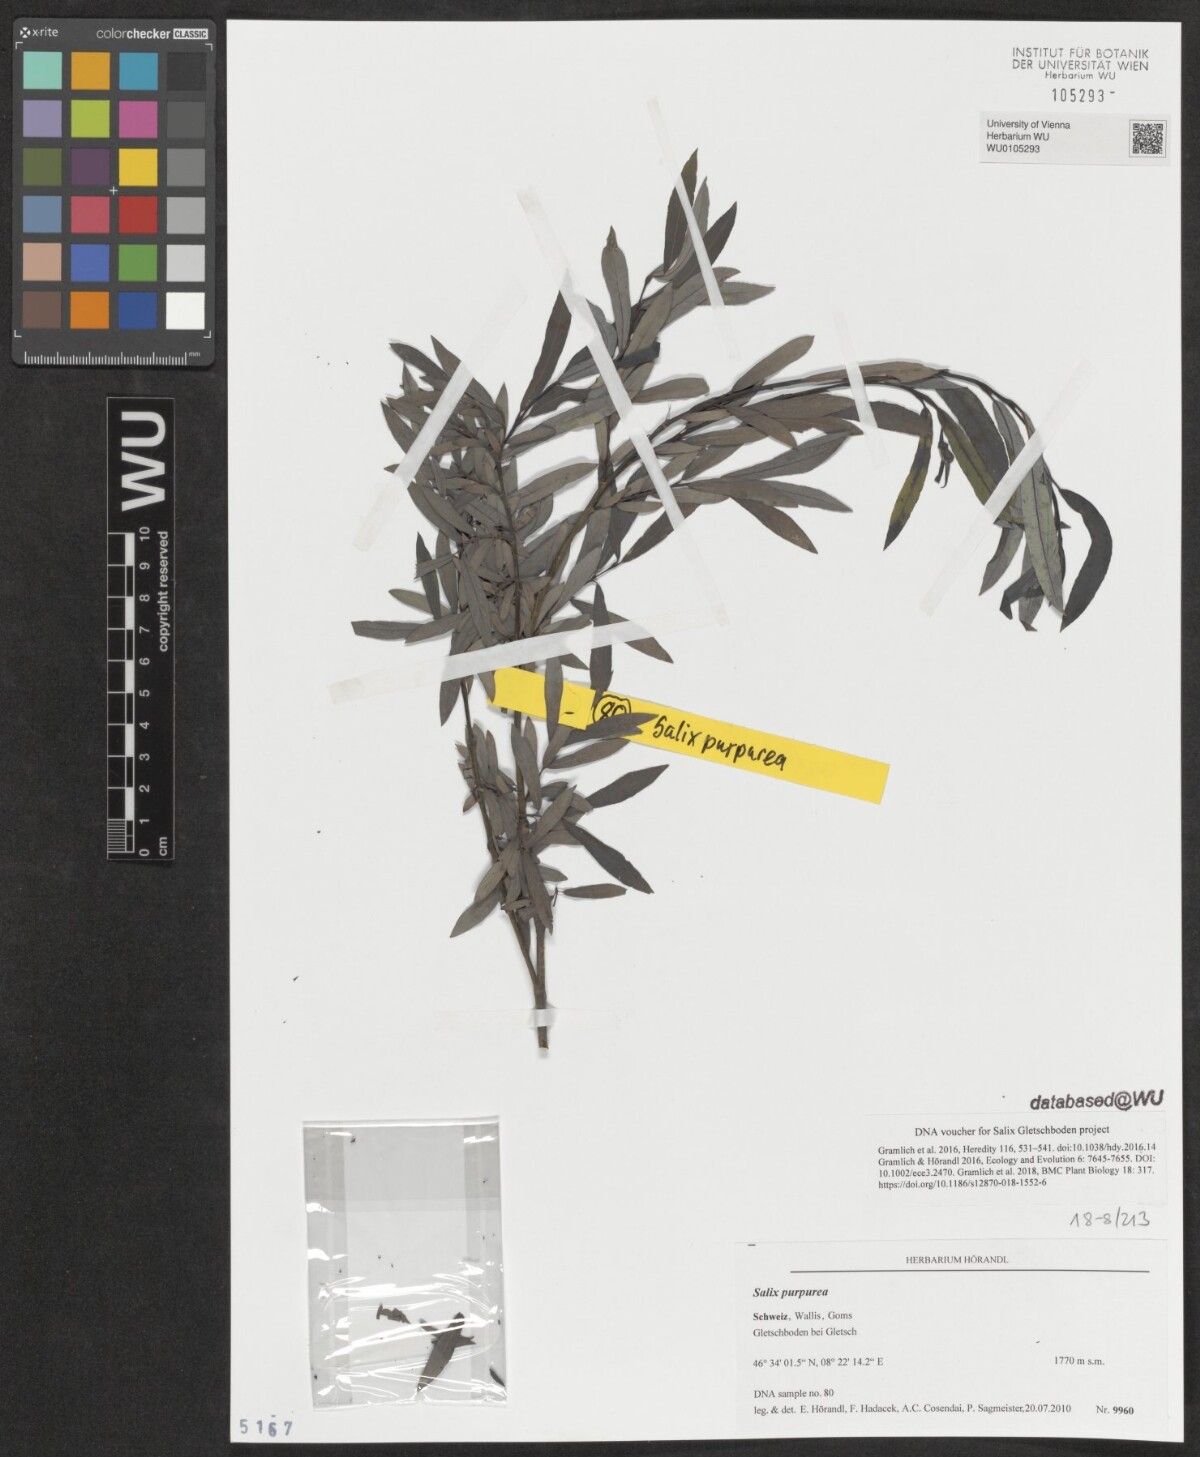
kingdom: Plantae
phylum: Tracheophyta
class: Magnoliopsida
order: Malpighiales
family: Salicaceae
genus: Salix
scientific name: Salix purpurea
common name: Purple willow
